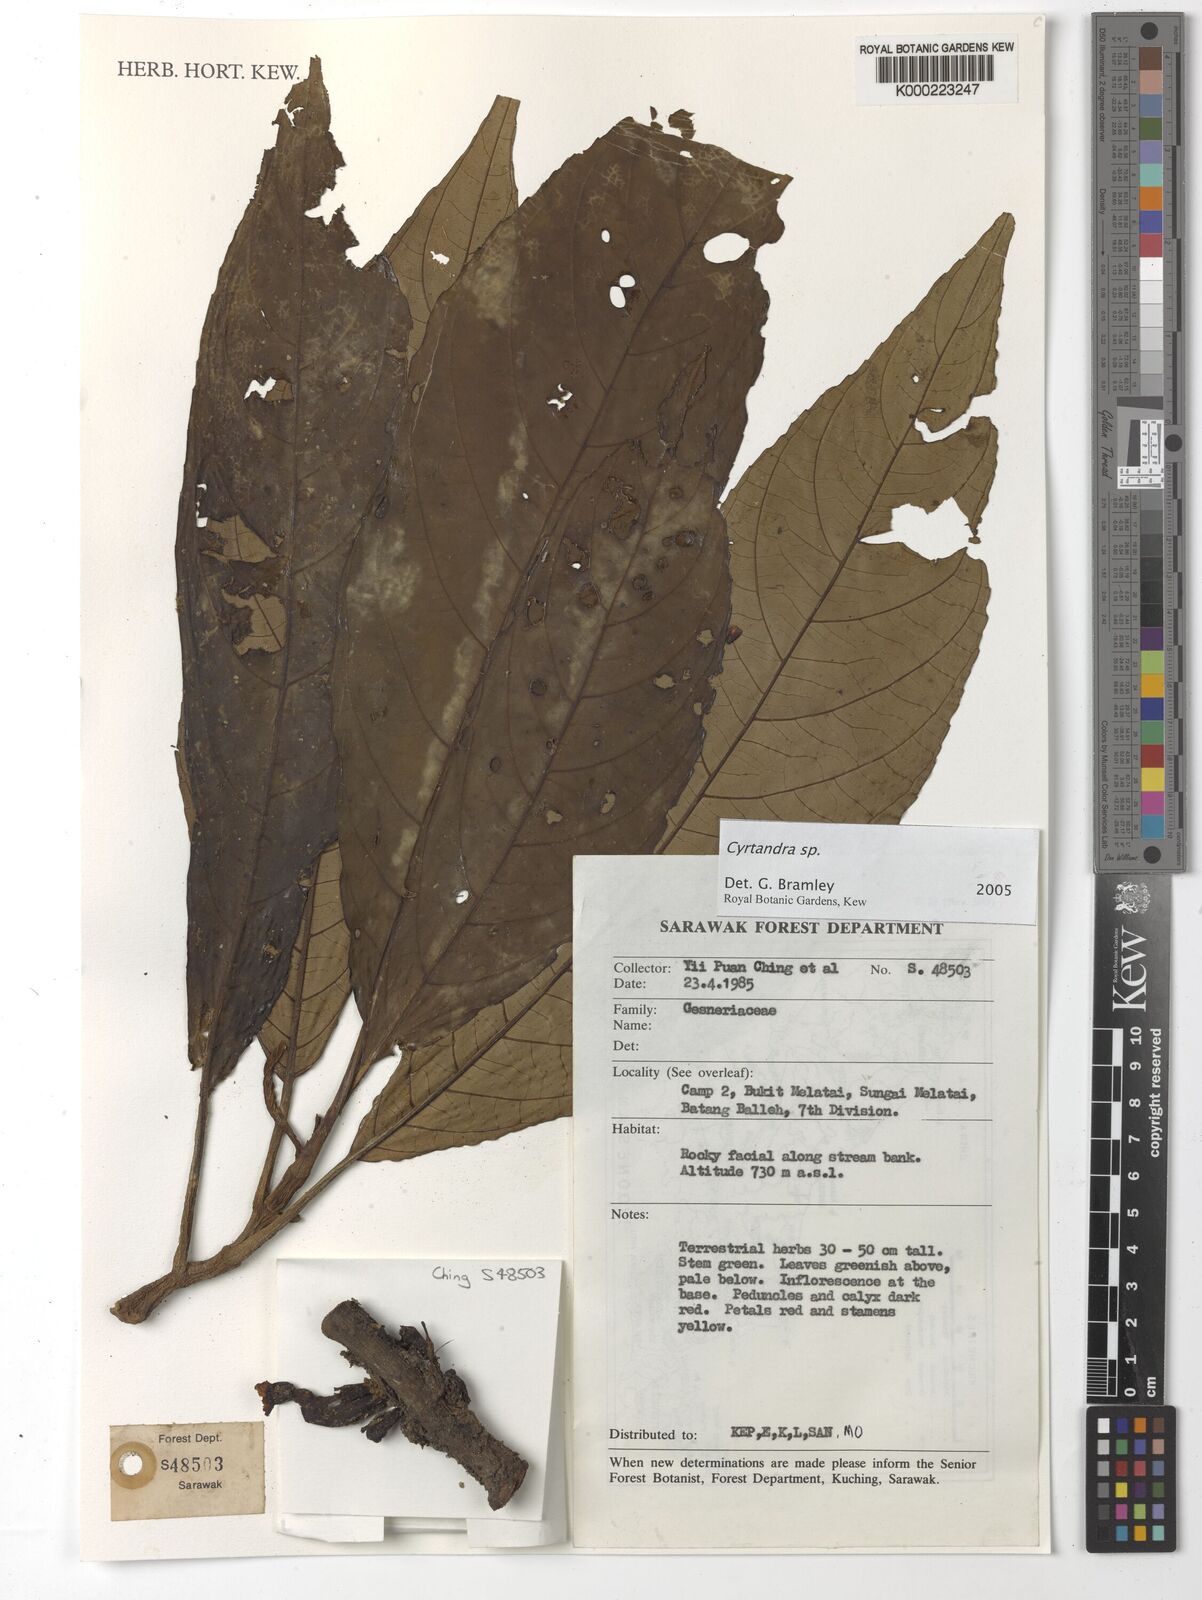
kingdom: Plantae
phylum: Tracheophyta
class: Magnoliopsida
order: Lamiales
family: Gesneriaceae
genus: Cyrtandra
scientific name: Cyrtandra
